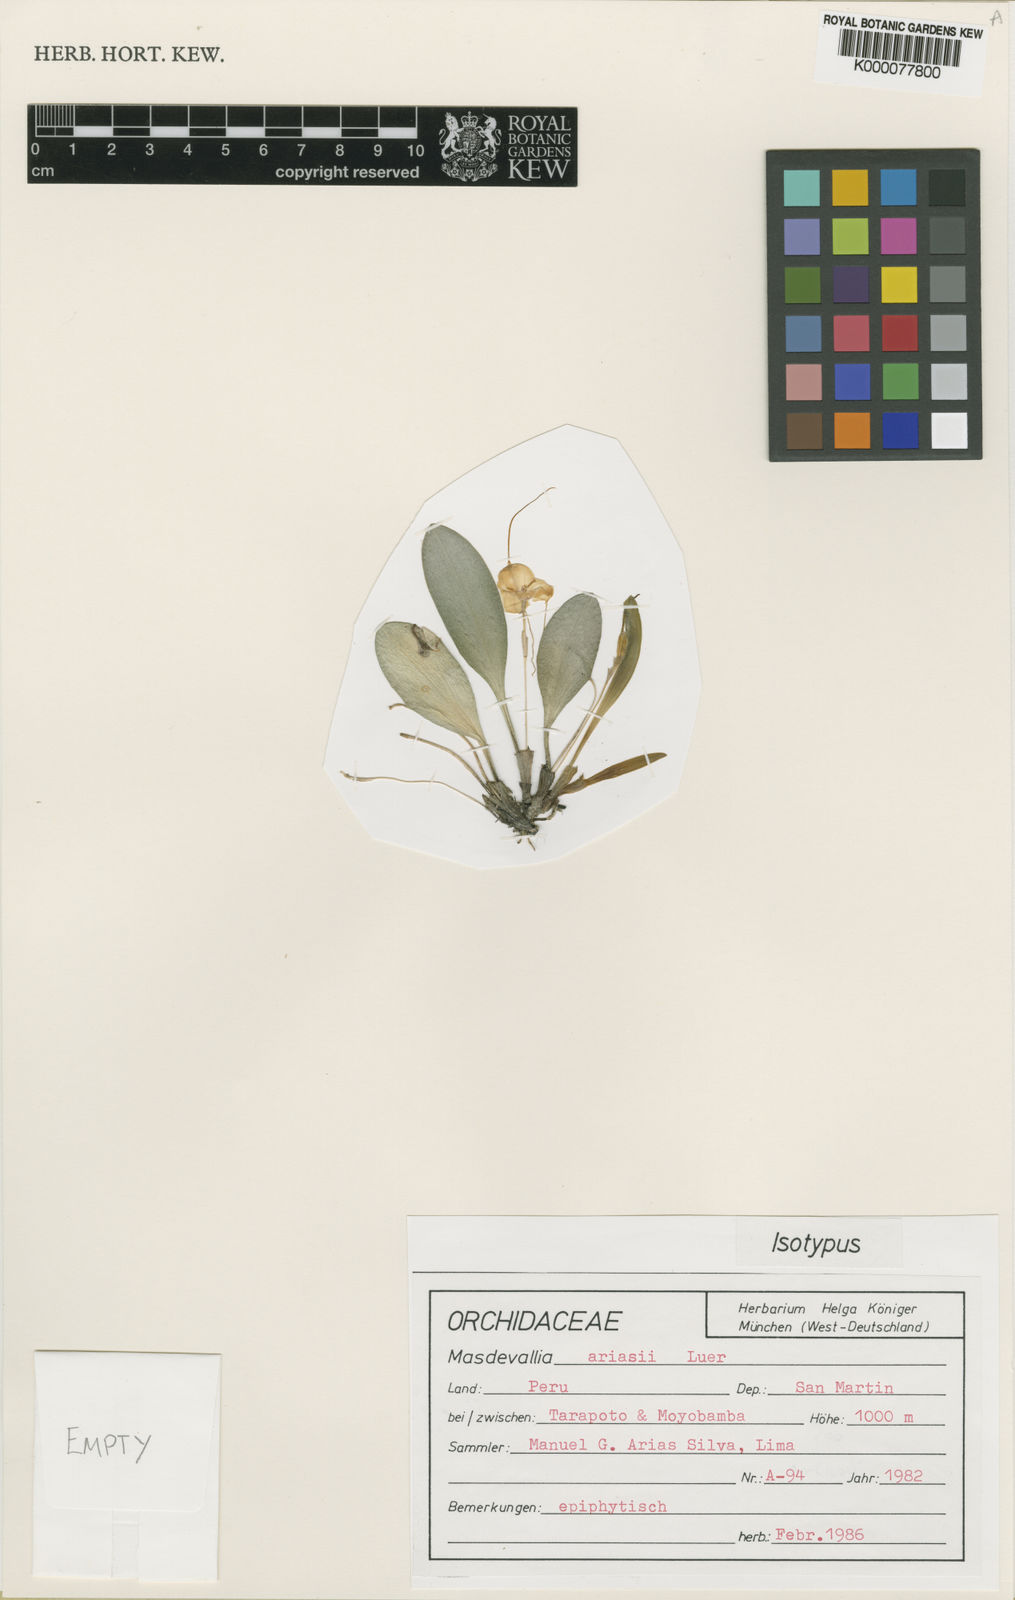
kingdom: Plantae
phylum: Tracheophyta
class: Liliopsida
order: Asparagales
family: Orchidaceae
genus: Masdevallia
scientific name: Masdevallia ariasii
